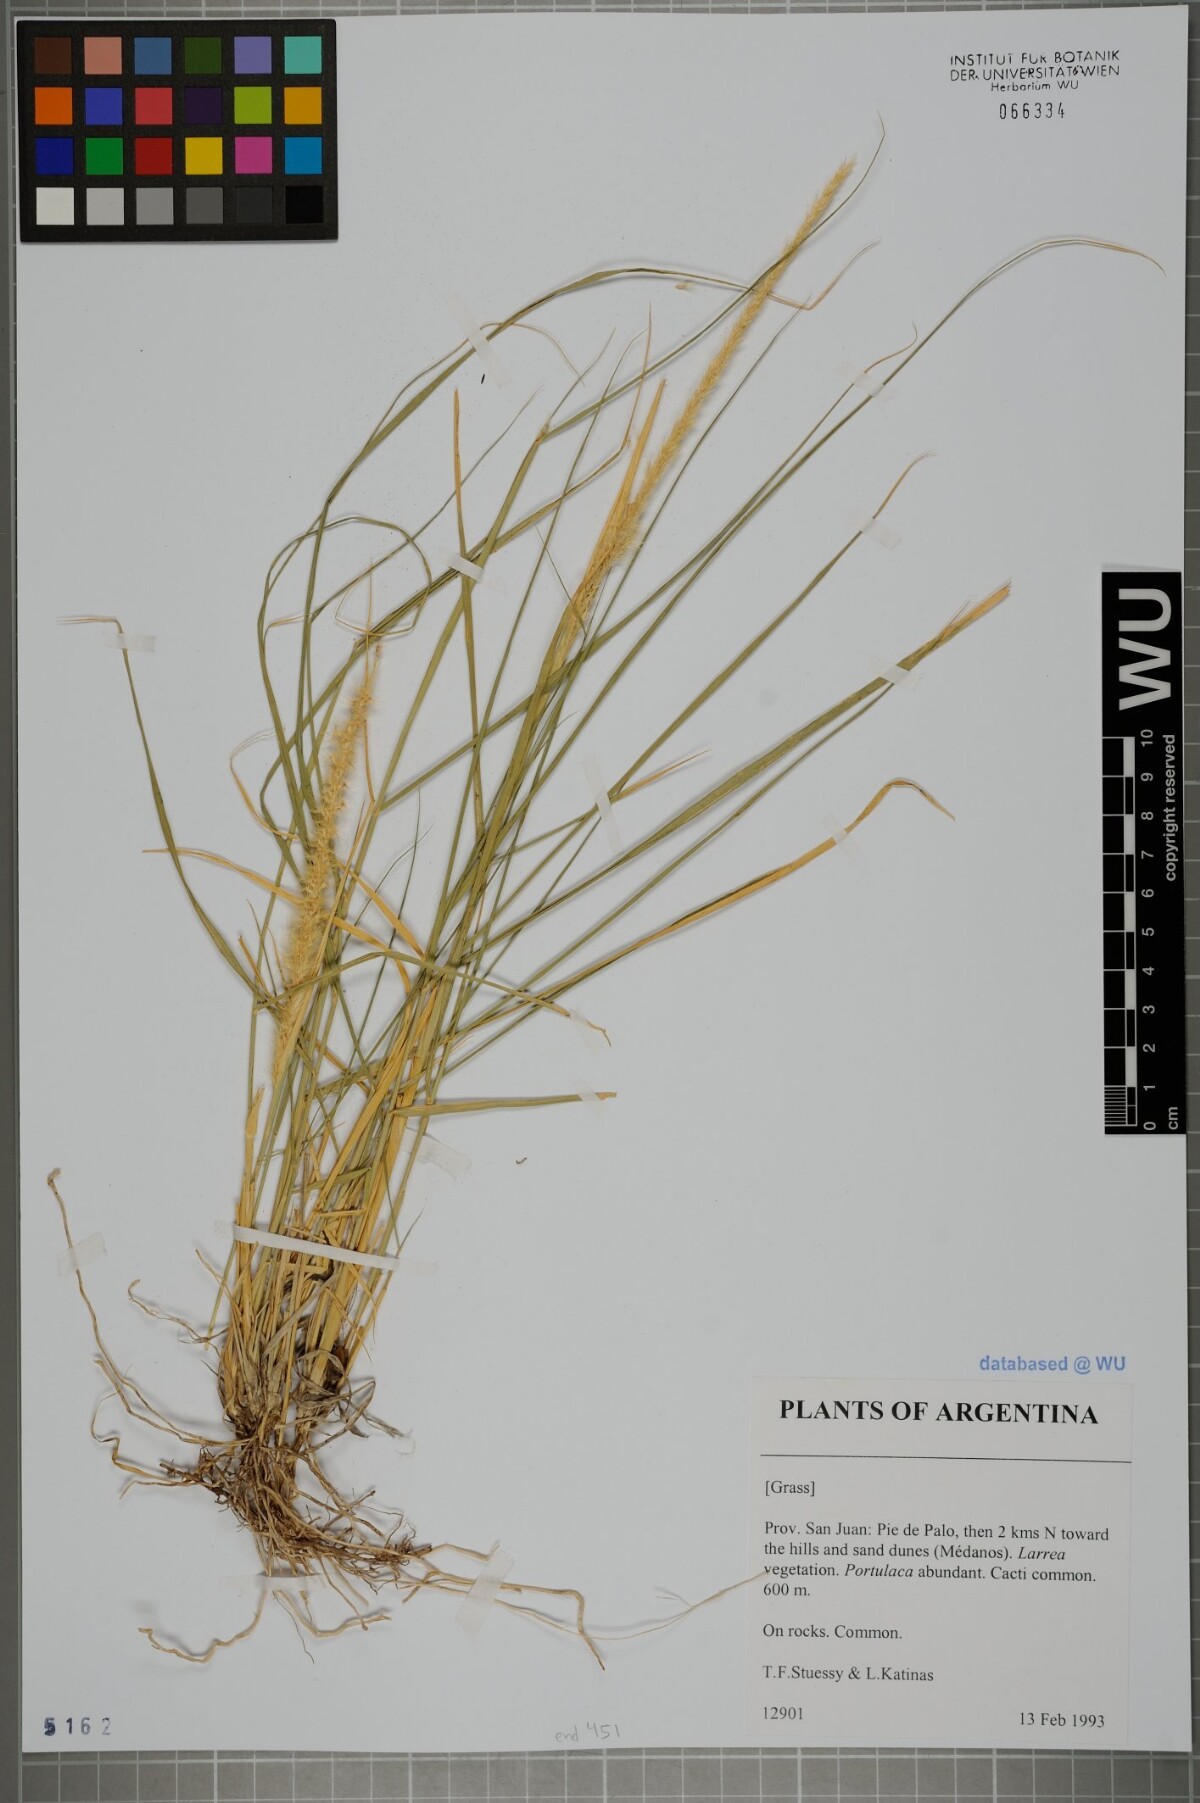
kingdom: Plantae
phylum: Tracheophyta
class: Liliopsida
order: Poales
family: Poaceae
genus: Pappophorum
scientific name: Pappophorum caespitosum
